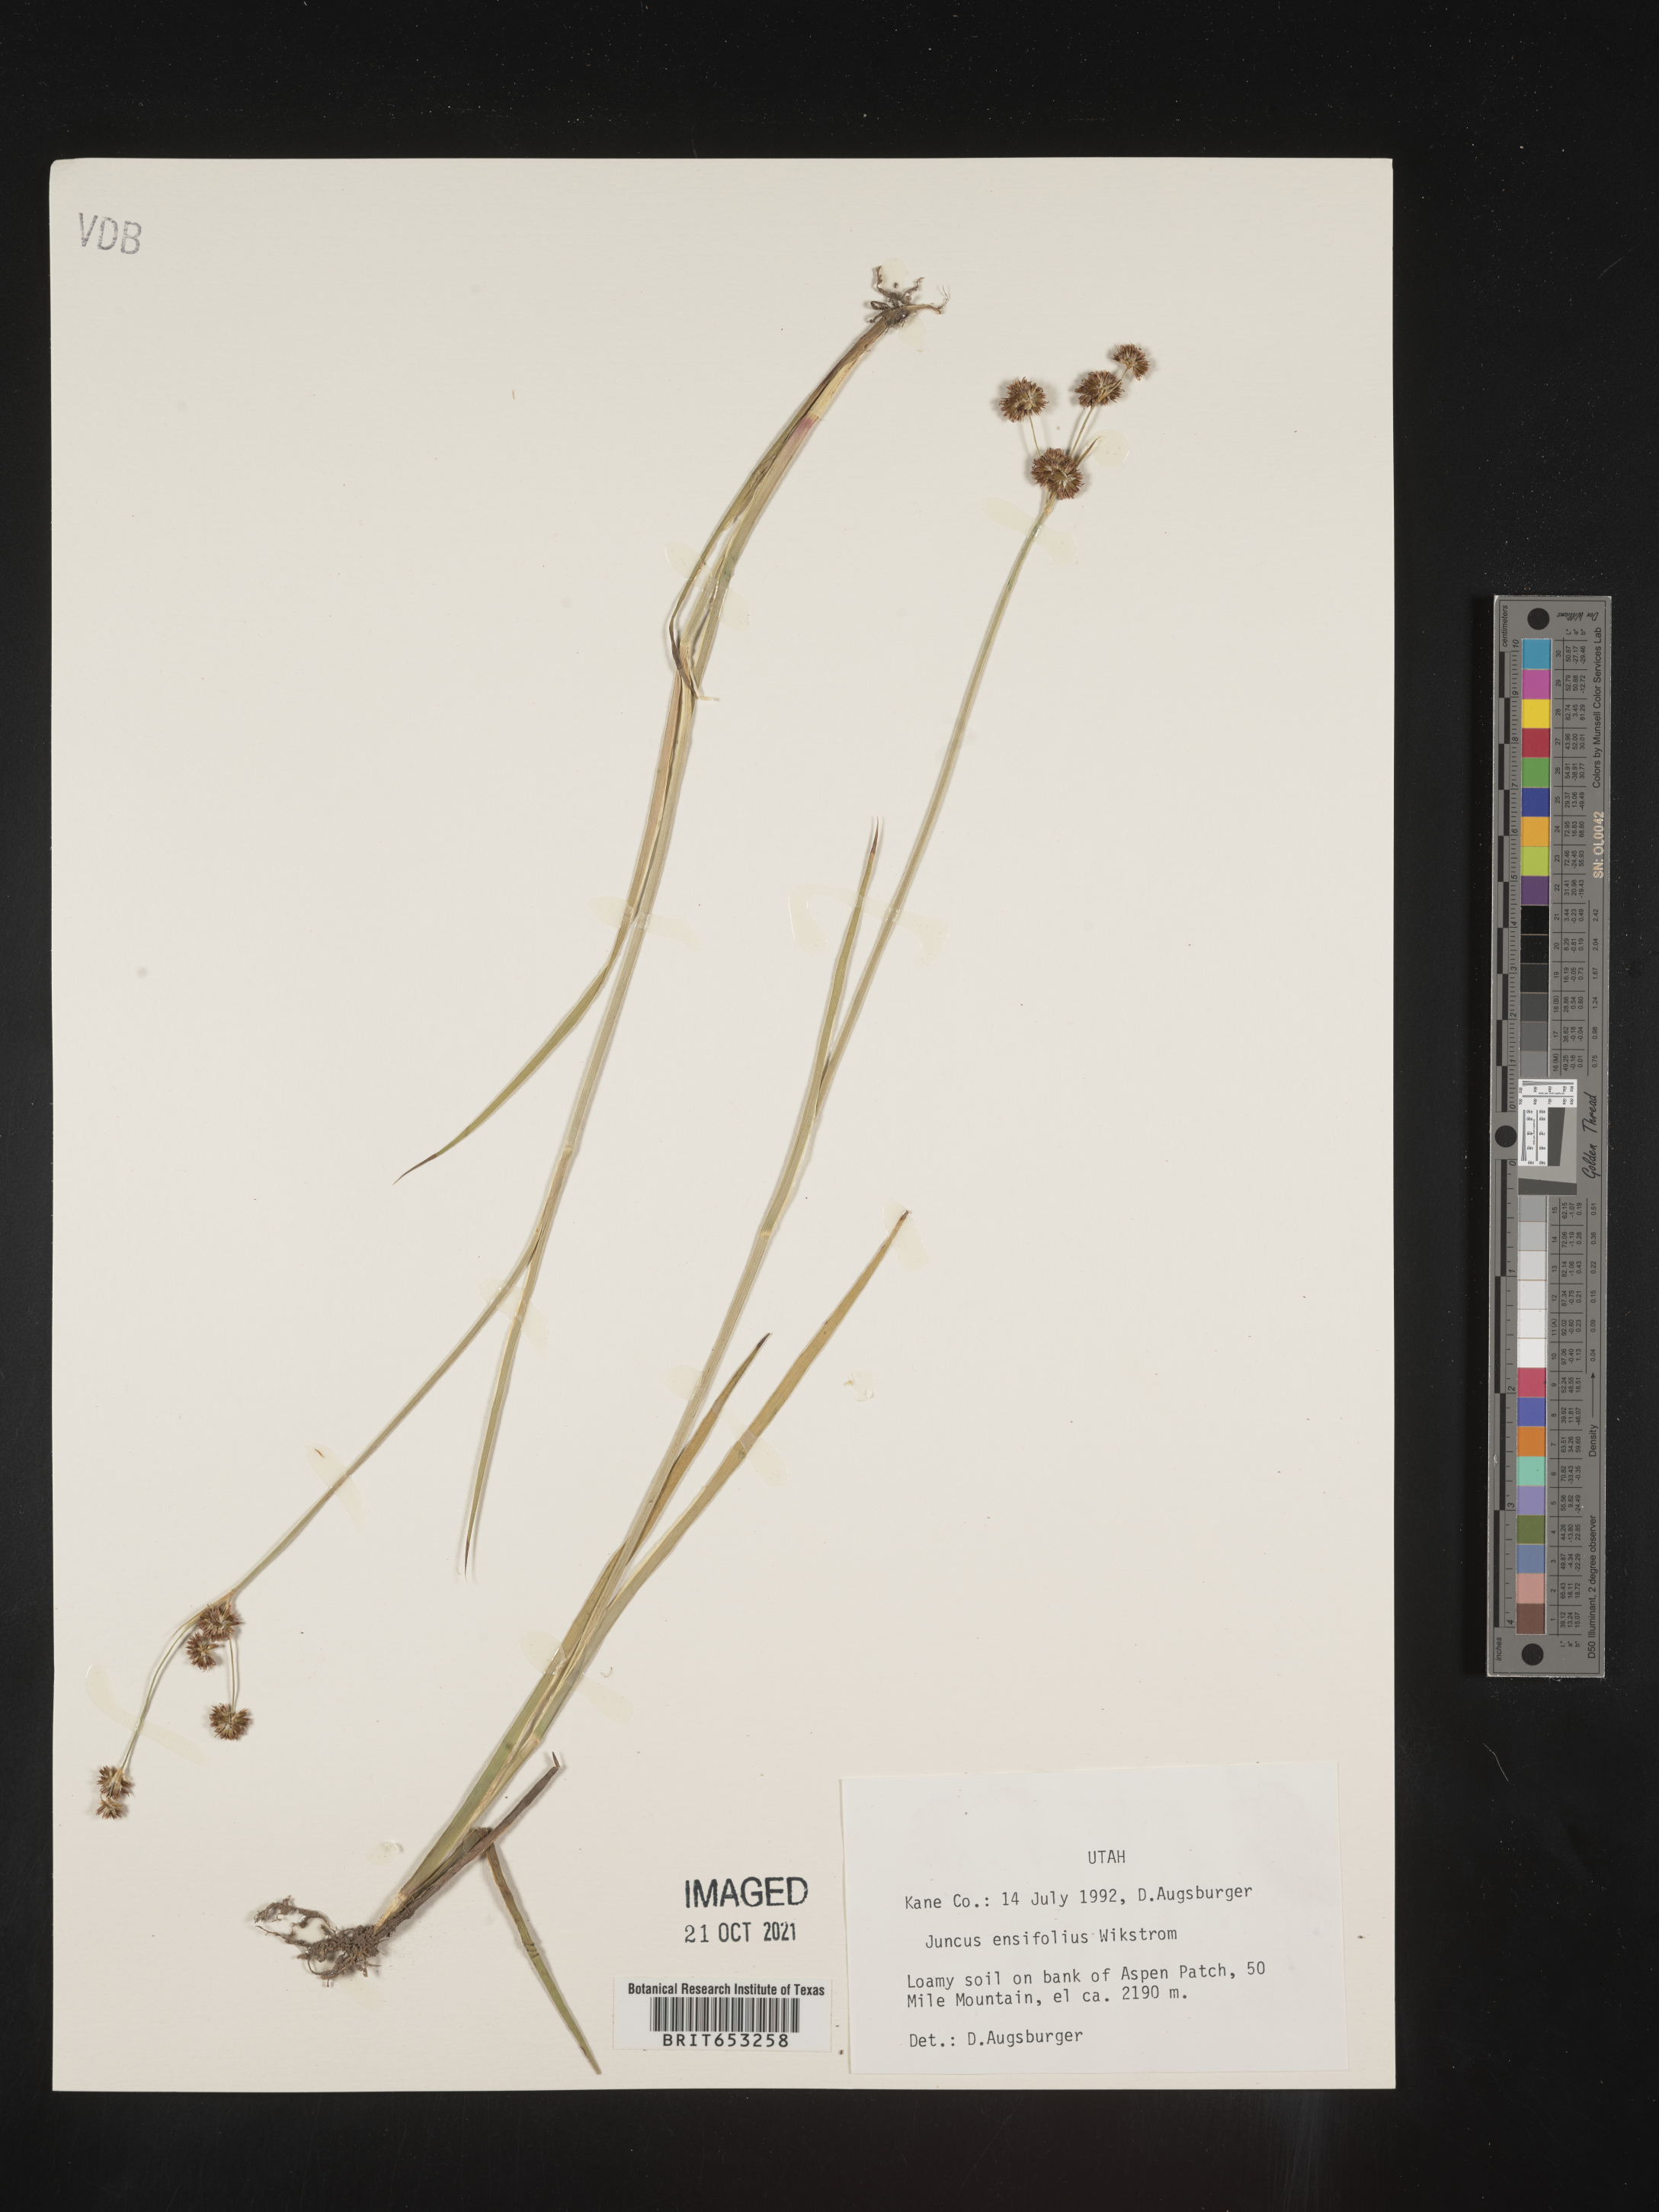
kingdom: Plantae
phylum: Tracheophyta
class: Liliopsida
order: Poales
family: Juncaceae
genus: Juncus
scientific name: Juncus ensifolius
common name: Sword-leaved rush
